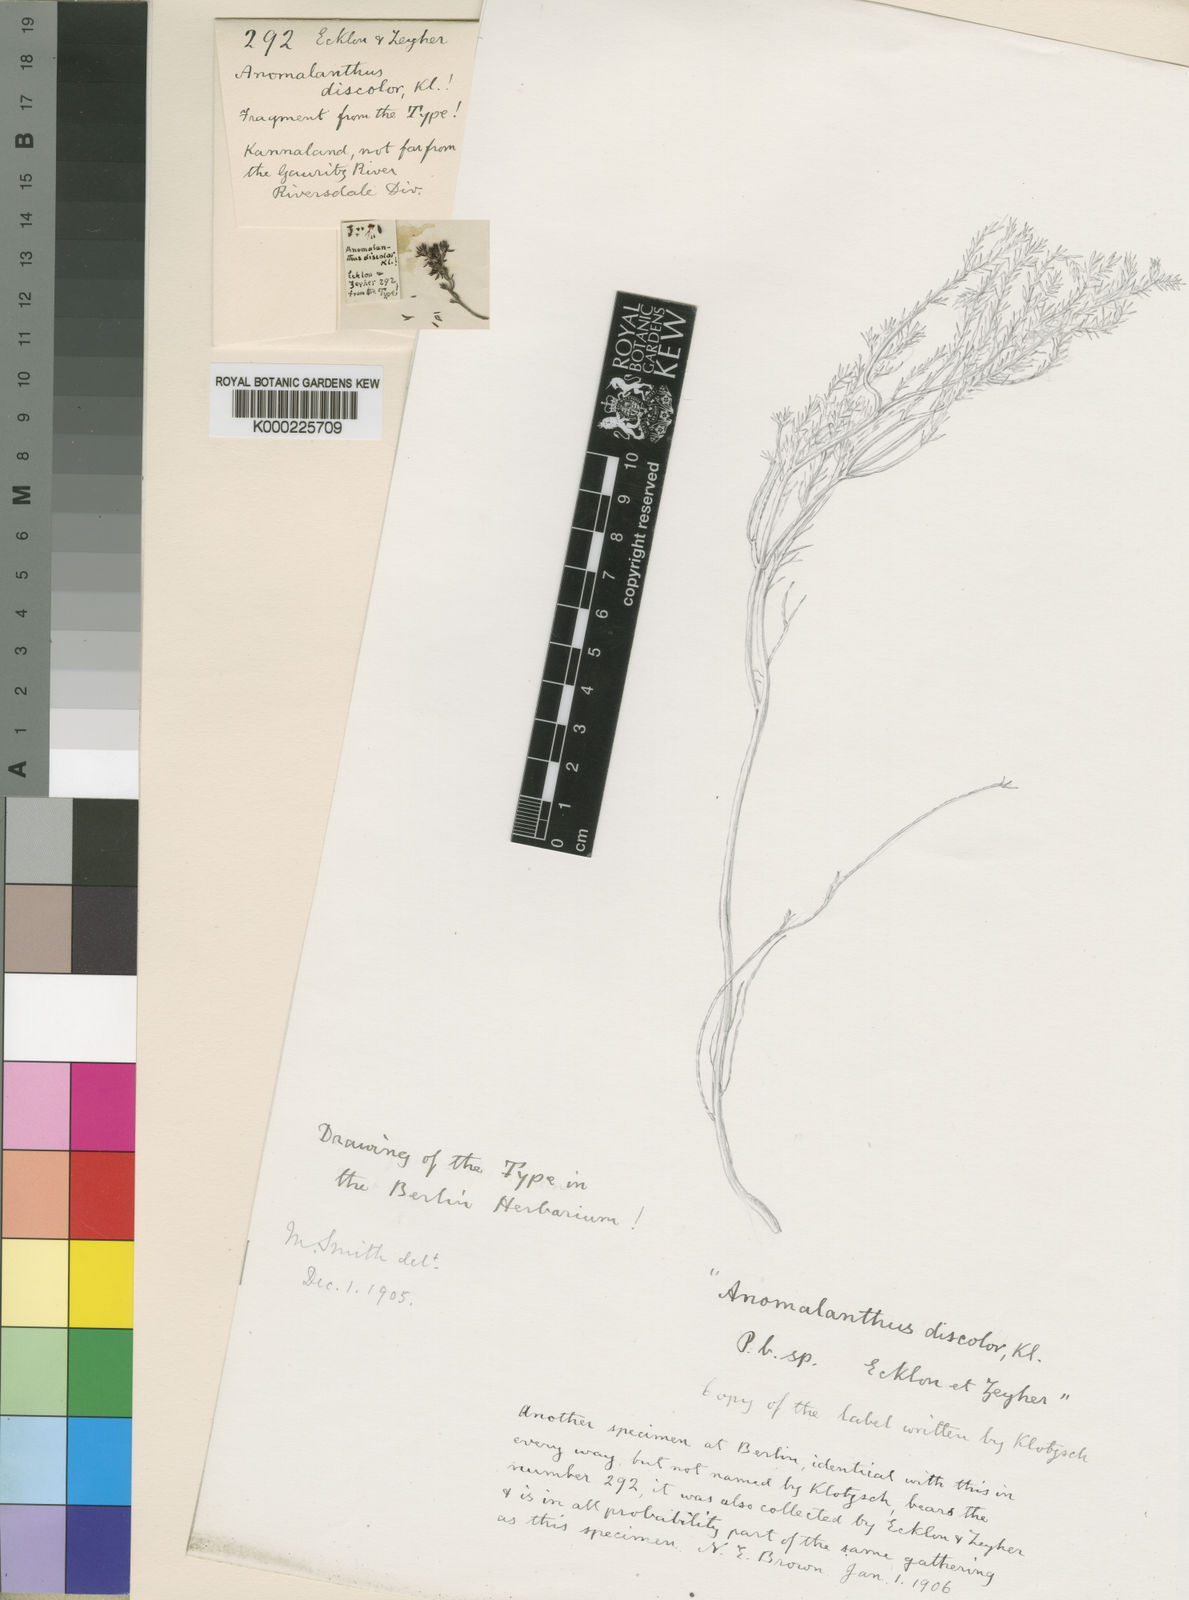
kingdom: Plantae
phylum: Tracheophyta
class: Magnoliopsida
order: Ericales
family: Ericaceae
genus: Erica
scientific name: Erica anguliger
